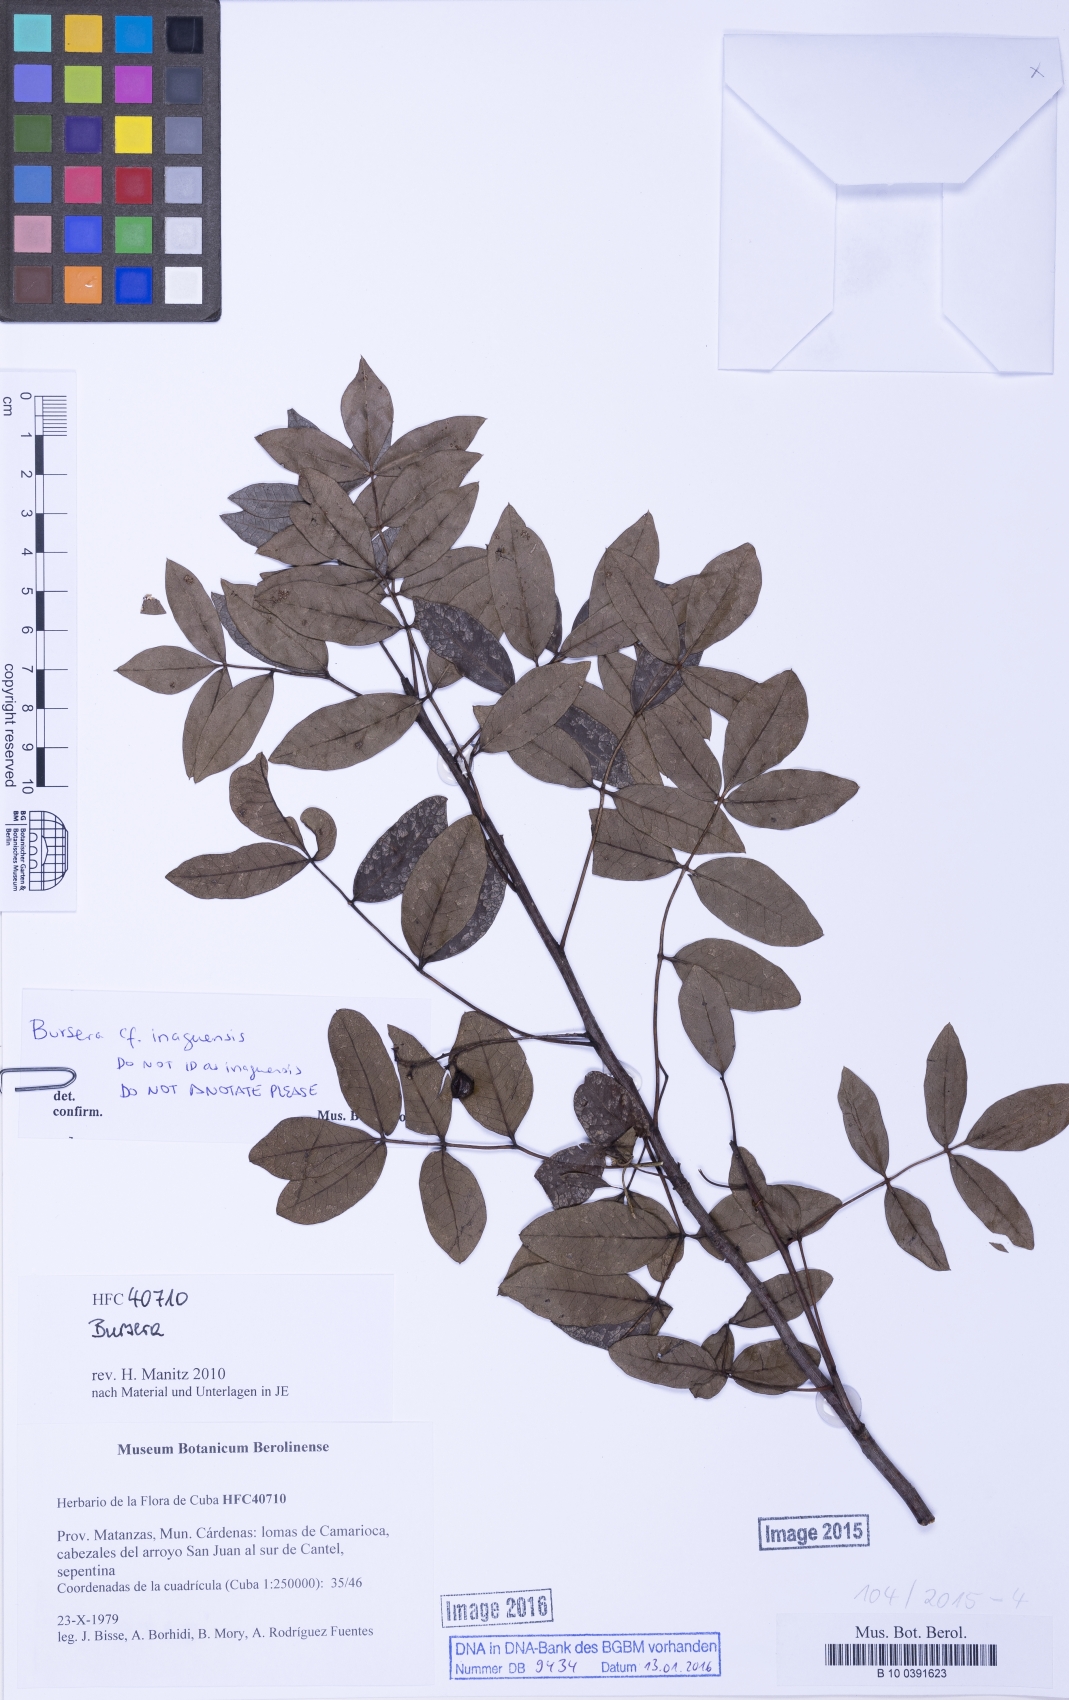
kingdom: Plantae
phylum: Tracheophyta
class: Magnoliopsida
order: Sapindales
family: Burseraceae
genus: Bursera
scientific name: Bursera
